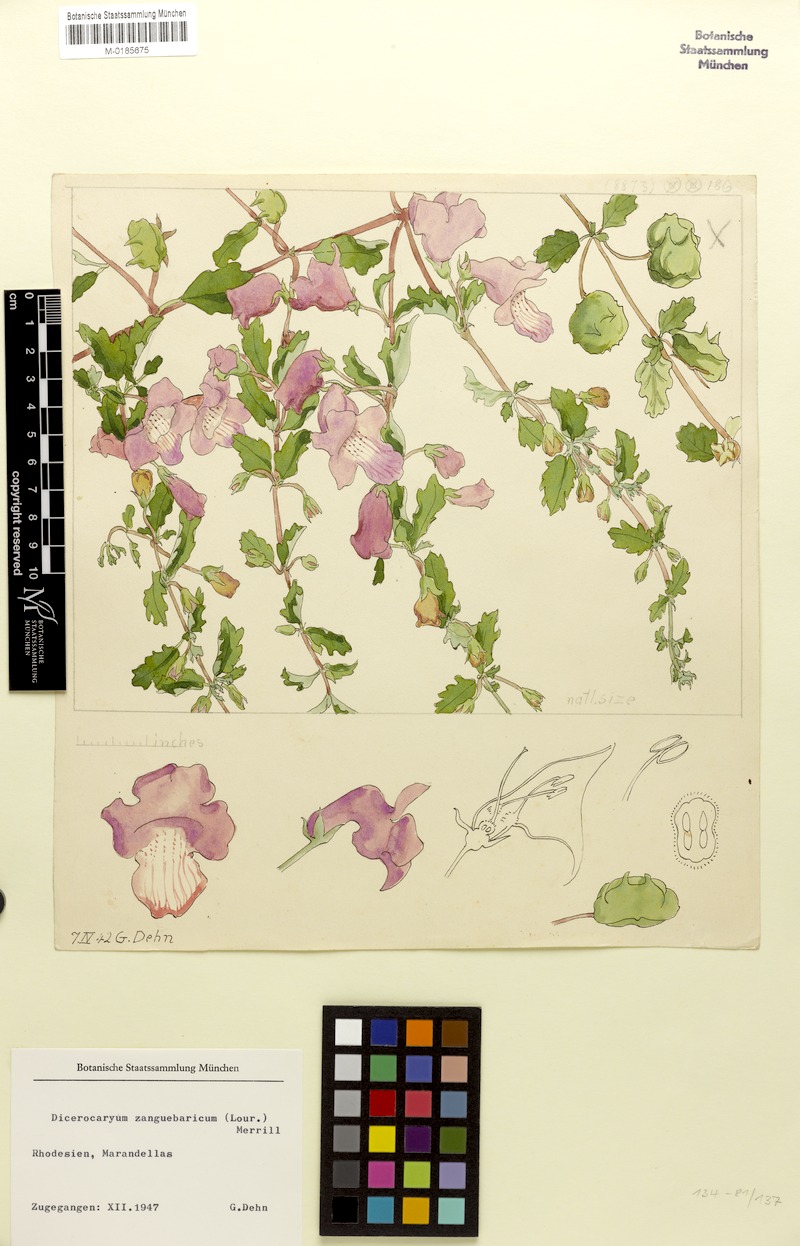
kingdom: Plantae
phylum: Tracheophyta
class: Magnoliopsida
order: Lamiales
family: Pedaliaceae
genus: Dicerocaryum
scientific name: Dicerocaryum zanguebarium
